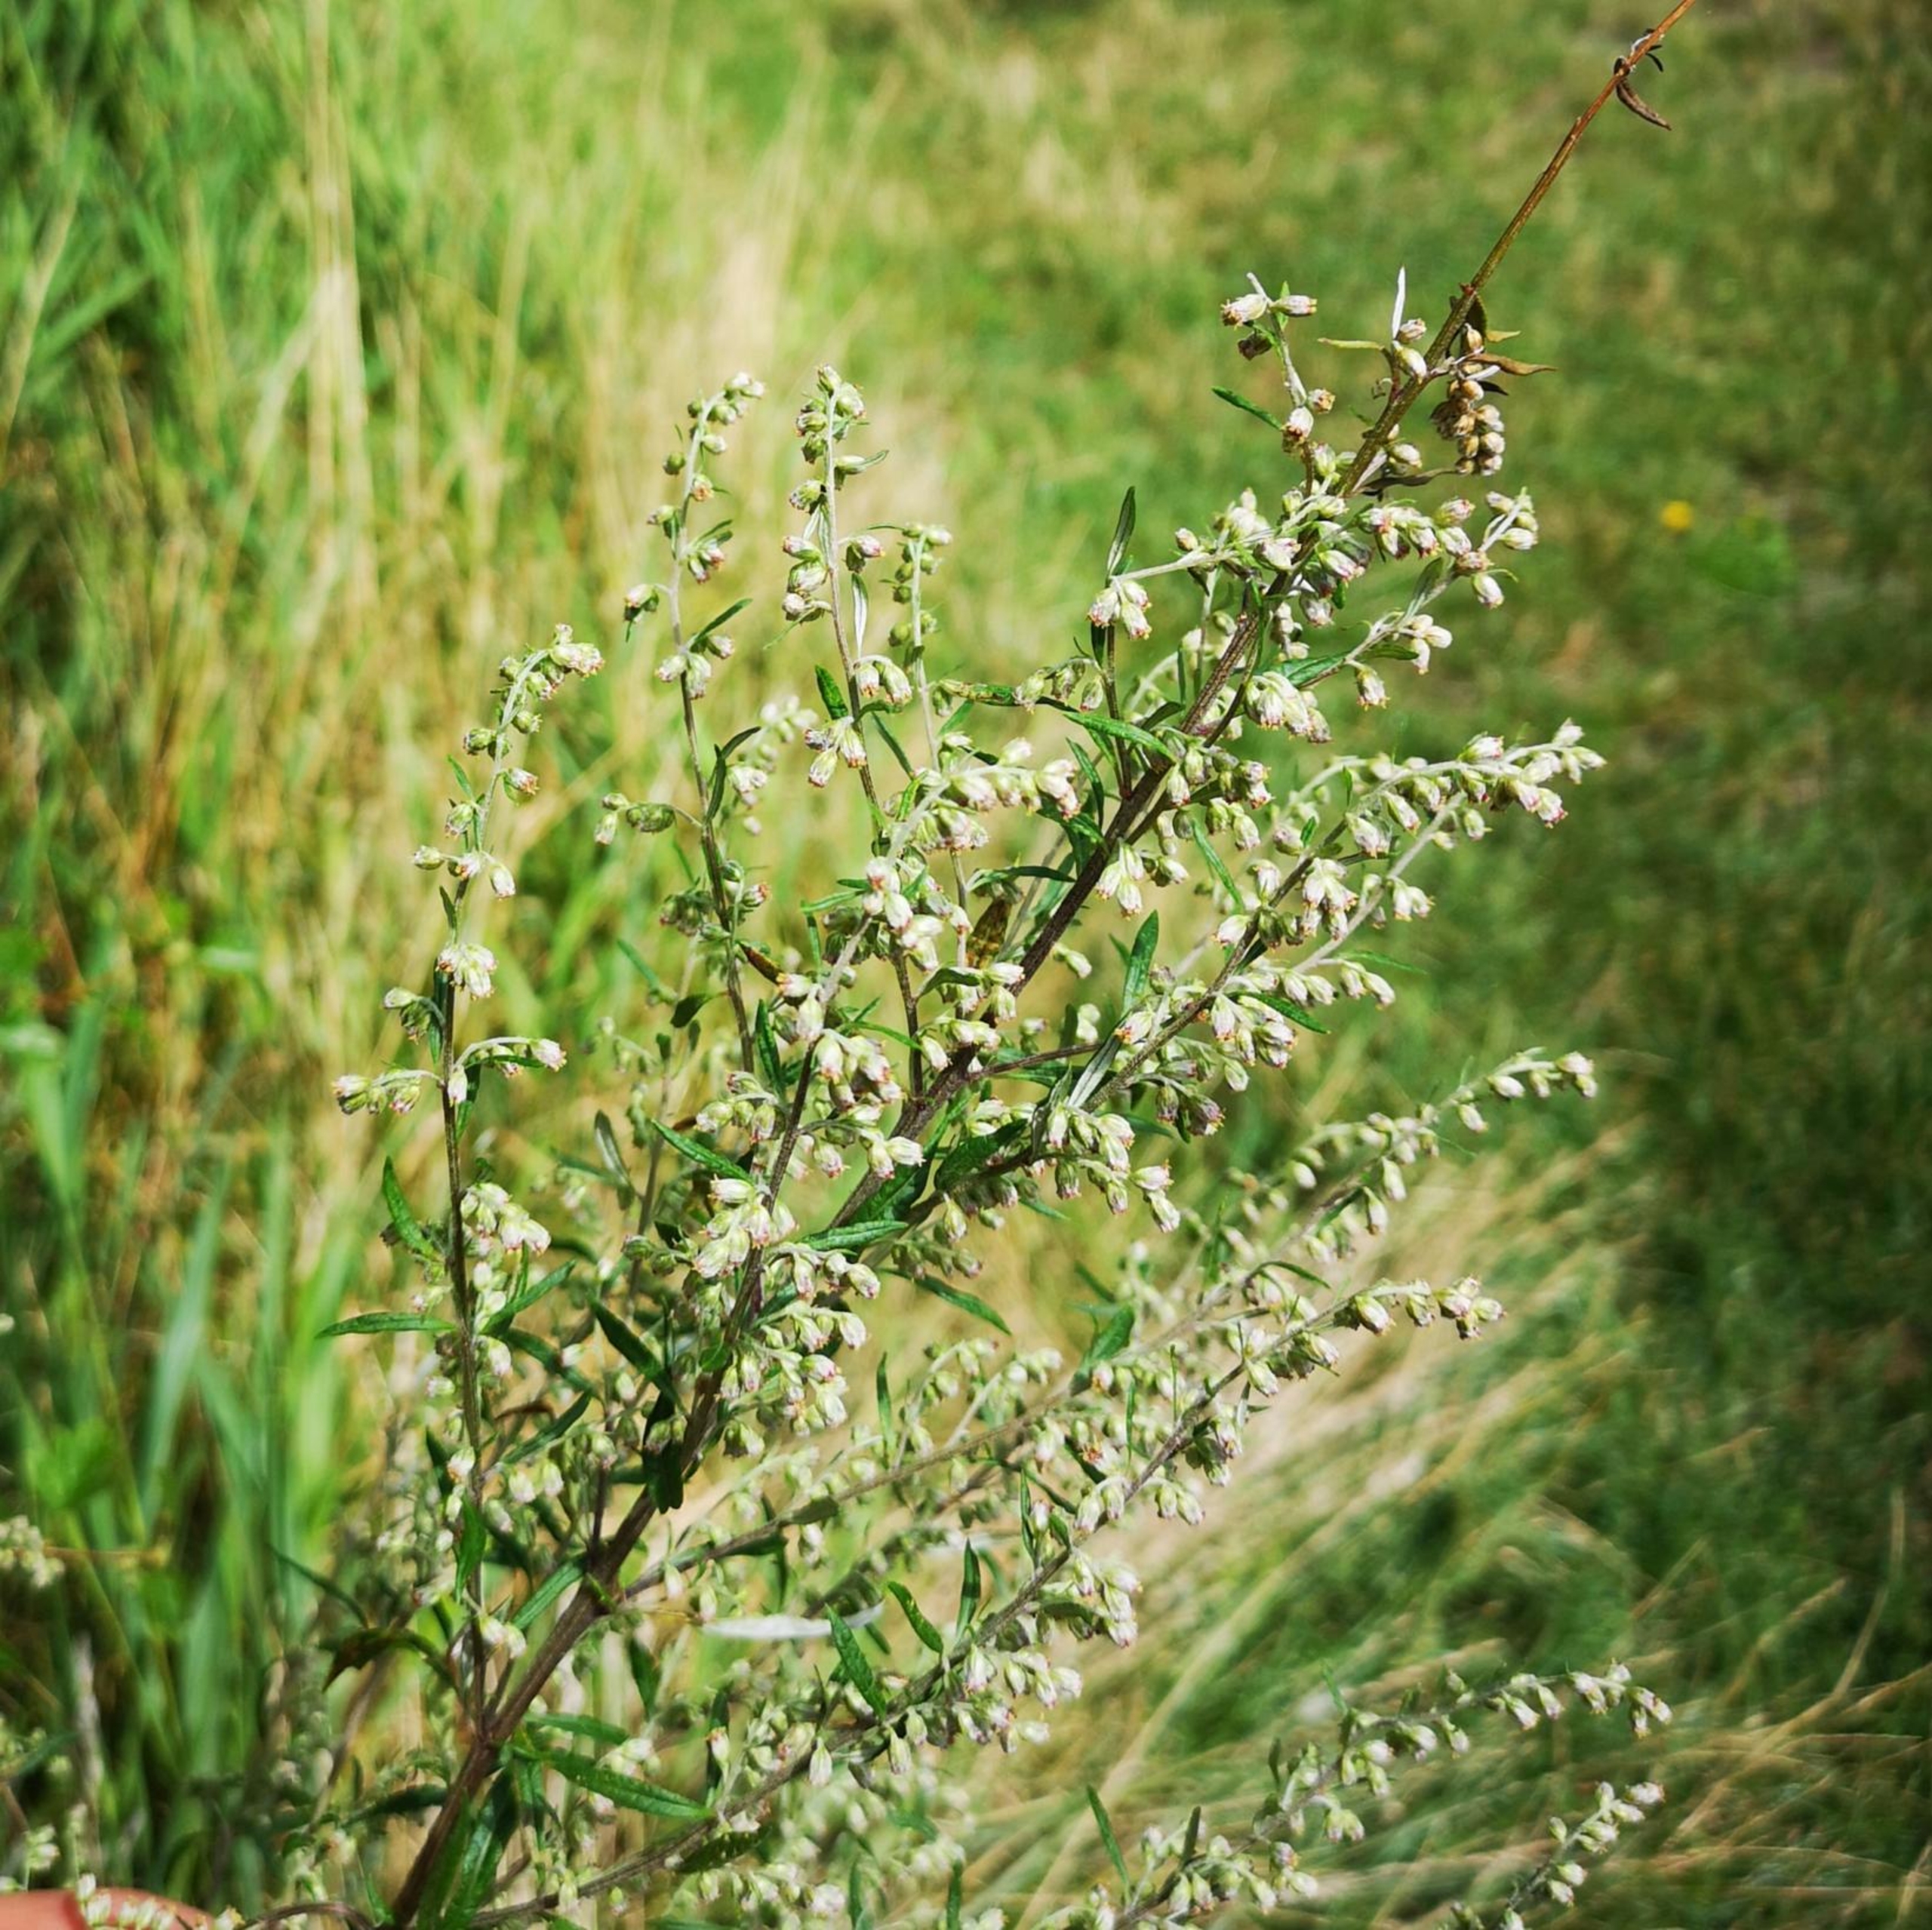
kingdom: Plantae
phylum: Tracheophyta
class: Magnoliopsida
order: Asterales
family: Asteraceae
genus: Artemisia
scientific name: Artemisia vulgaris
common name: Grå-bynke
